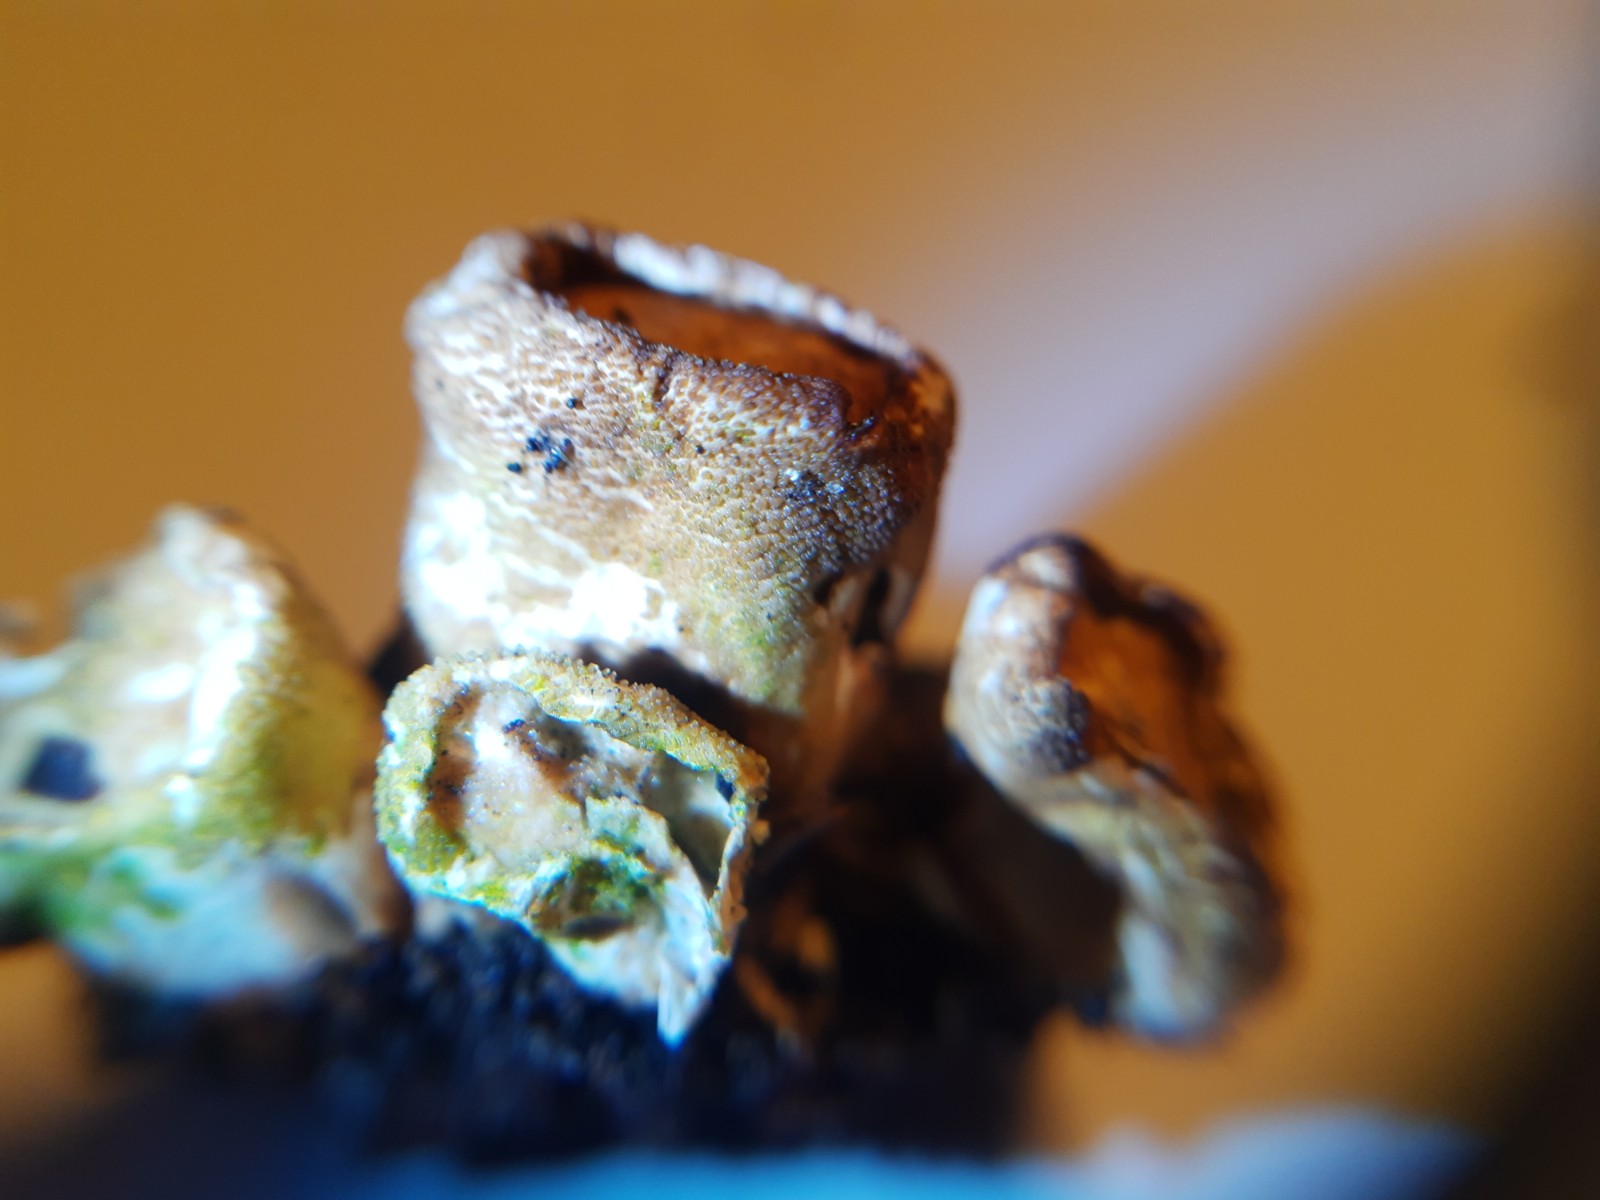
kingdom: Fungi
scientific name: Fungi
